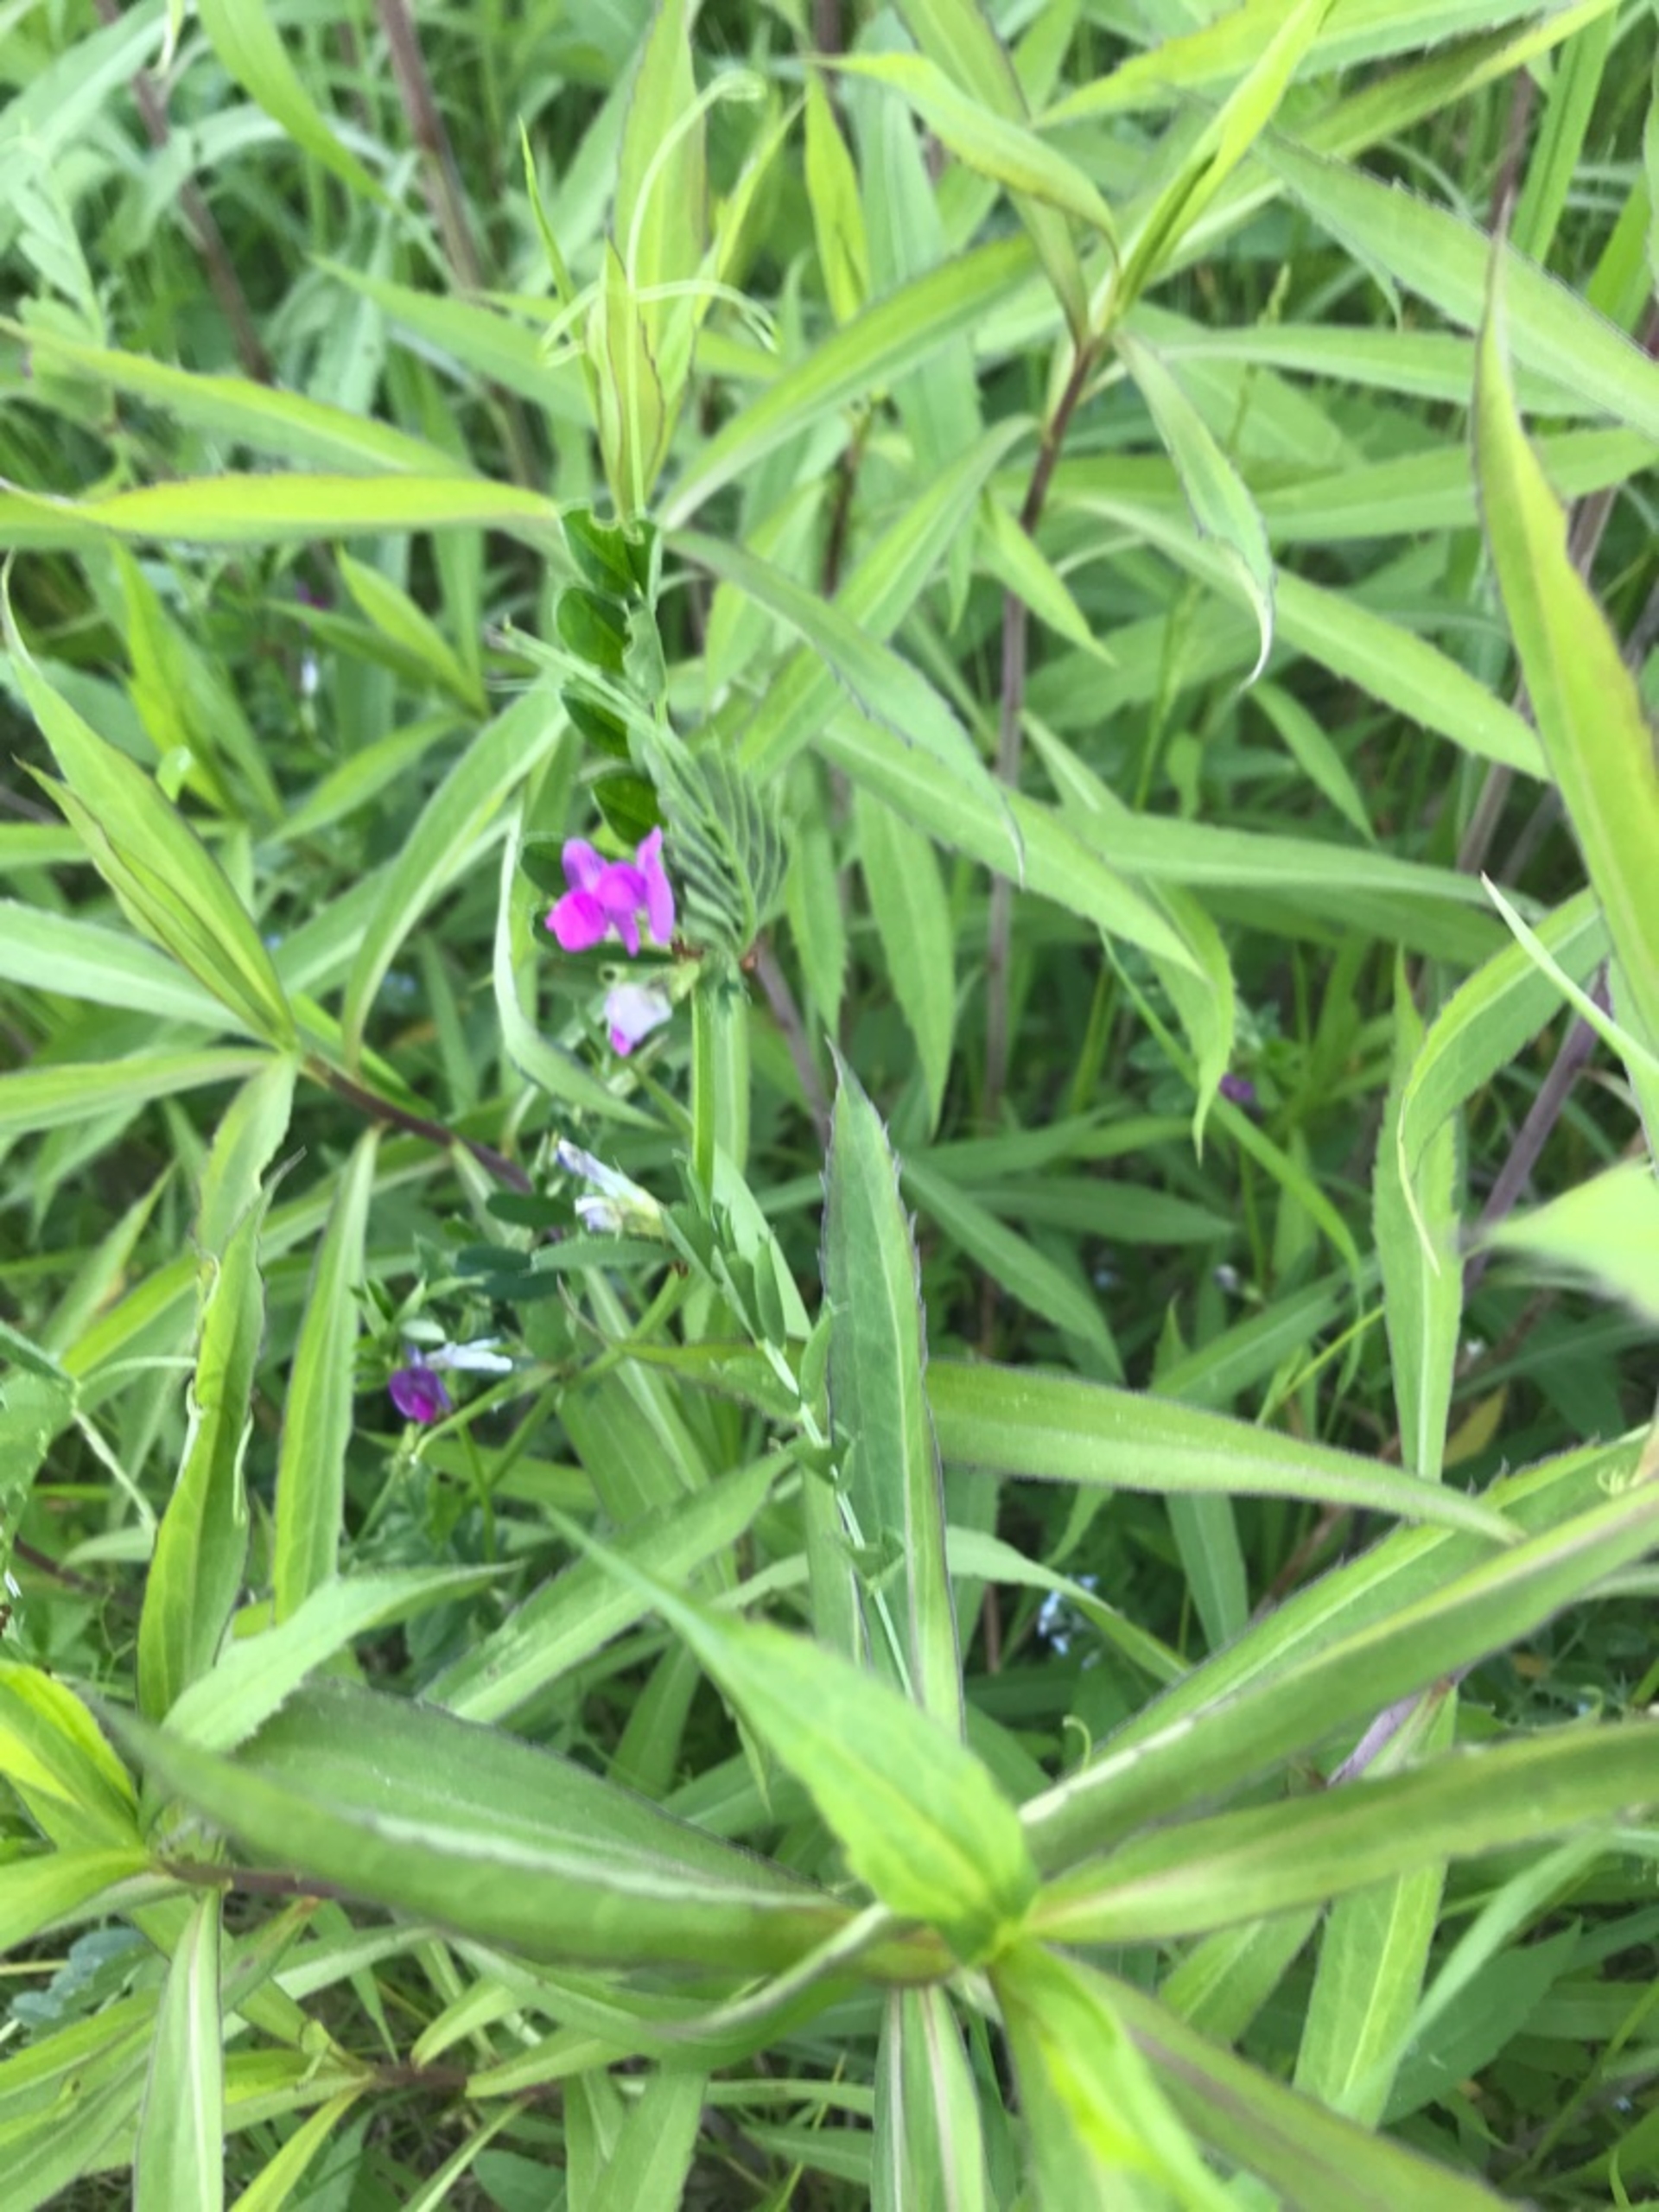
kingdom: Plantae
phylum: Tracheophyta
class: Magnoliopsida
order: Fabales
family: Fabaceae
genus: Vicia
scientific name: Vicia sativa
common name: Foder-vikke
